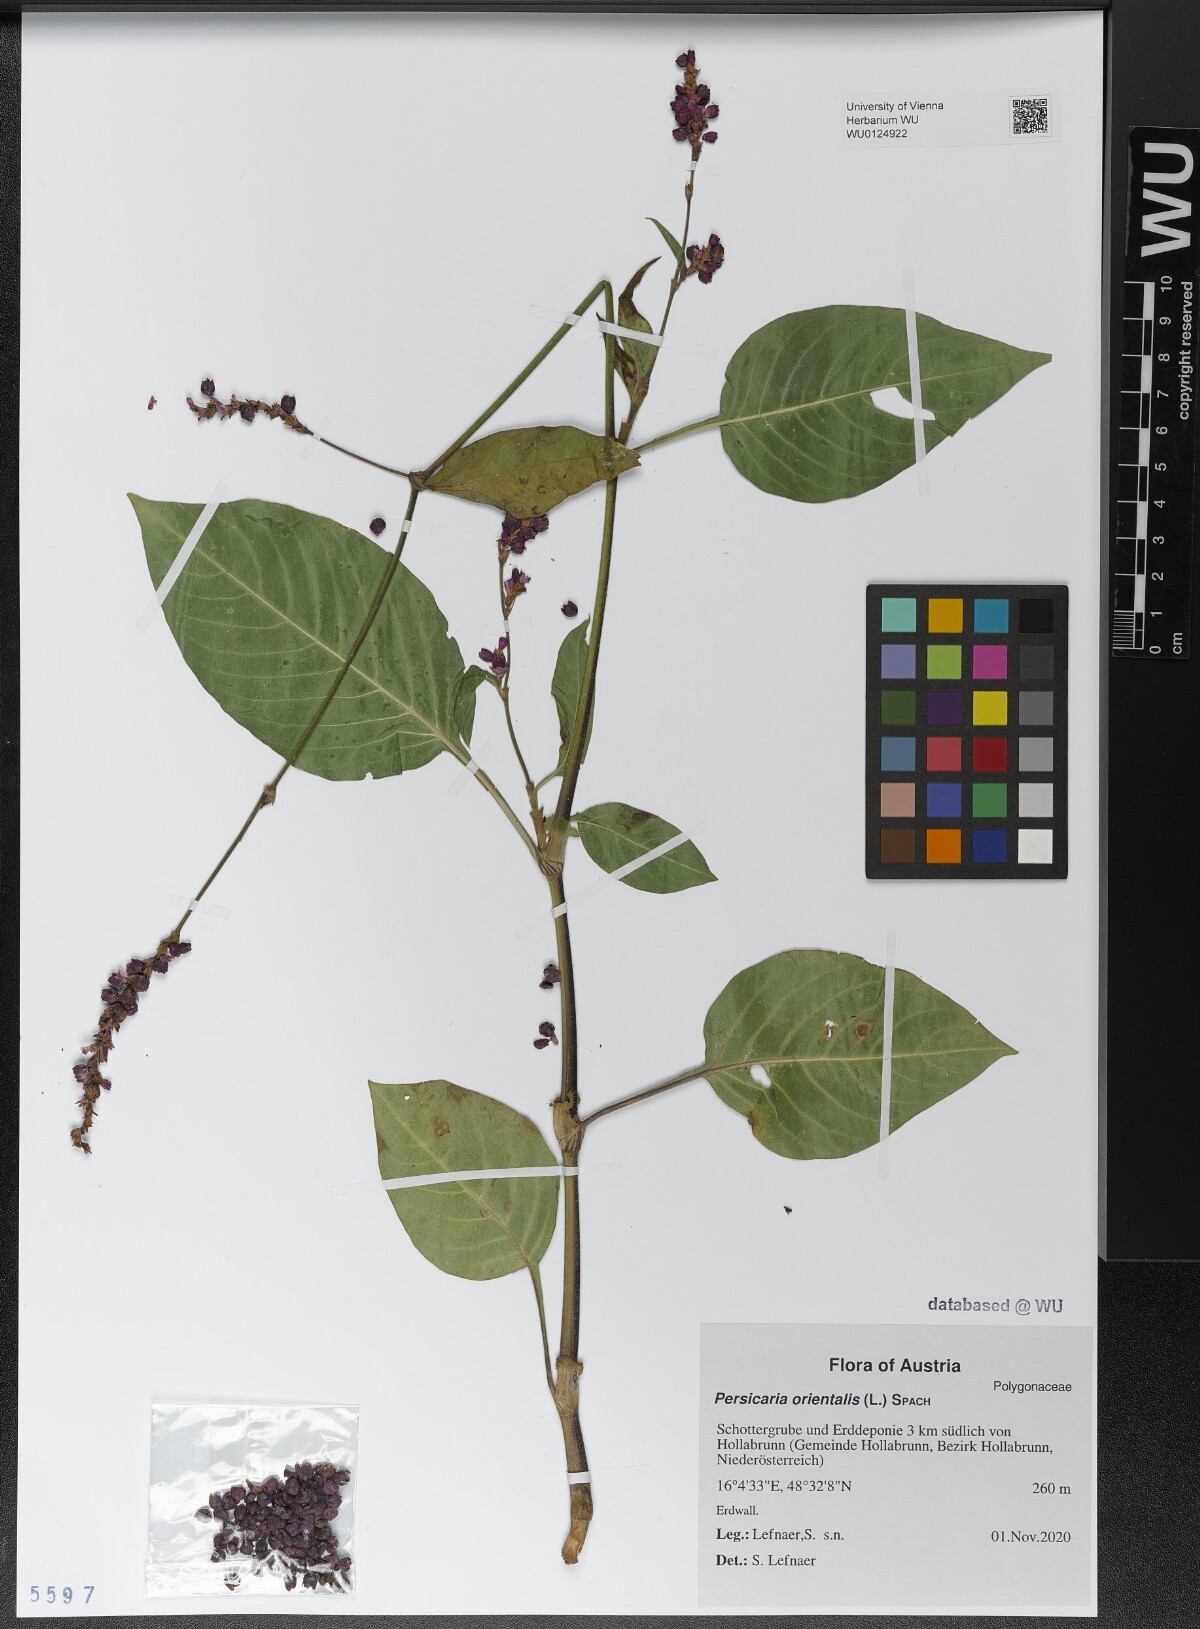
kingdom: Plantae
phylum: Tracheophyta
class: Magnoliopsida
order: Caryophyllales
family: Polygonaceae
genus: Persicaria
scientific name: Persicaria orientalis
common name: Kiss-me-over-the-garden-gate
